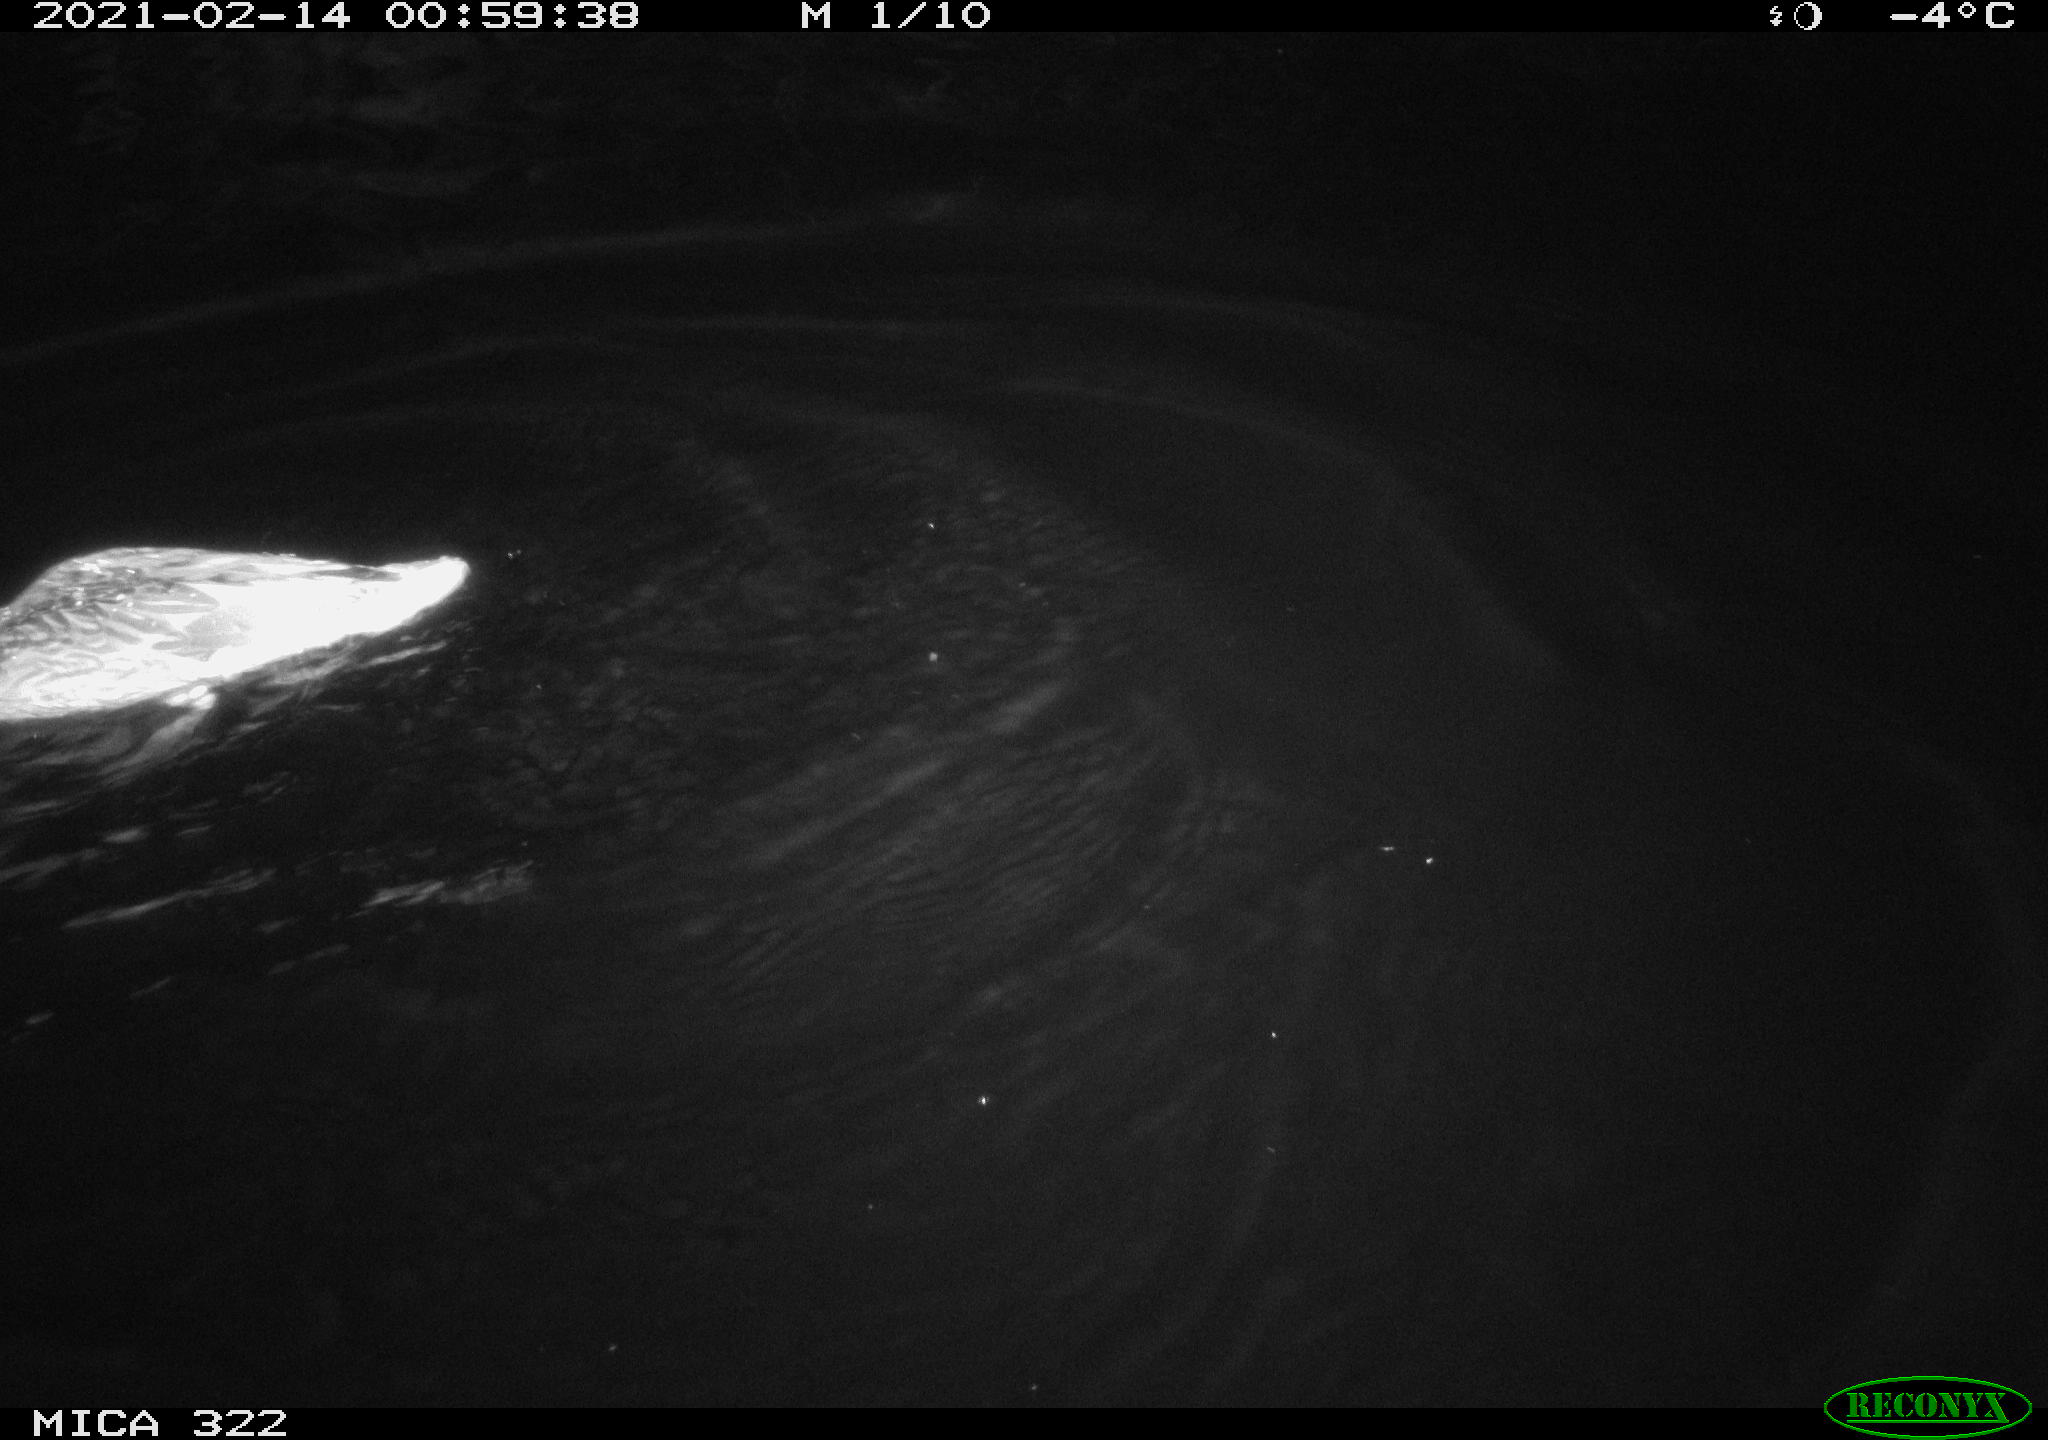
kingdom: Animalia
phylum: Chordata
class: Aves
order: Anseriformes
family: Anatidae
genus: Anas
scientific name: Anas platyrhynchos
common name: Mallard
